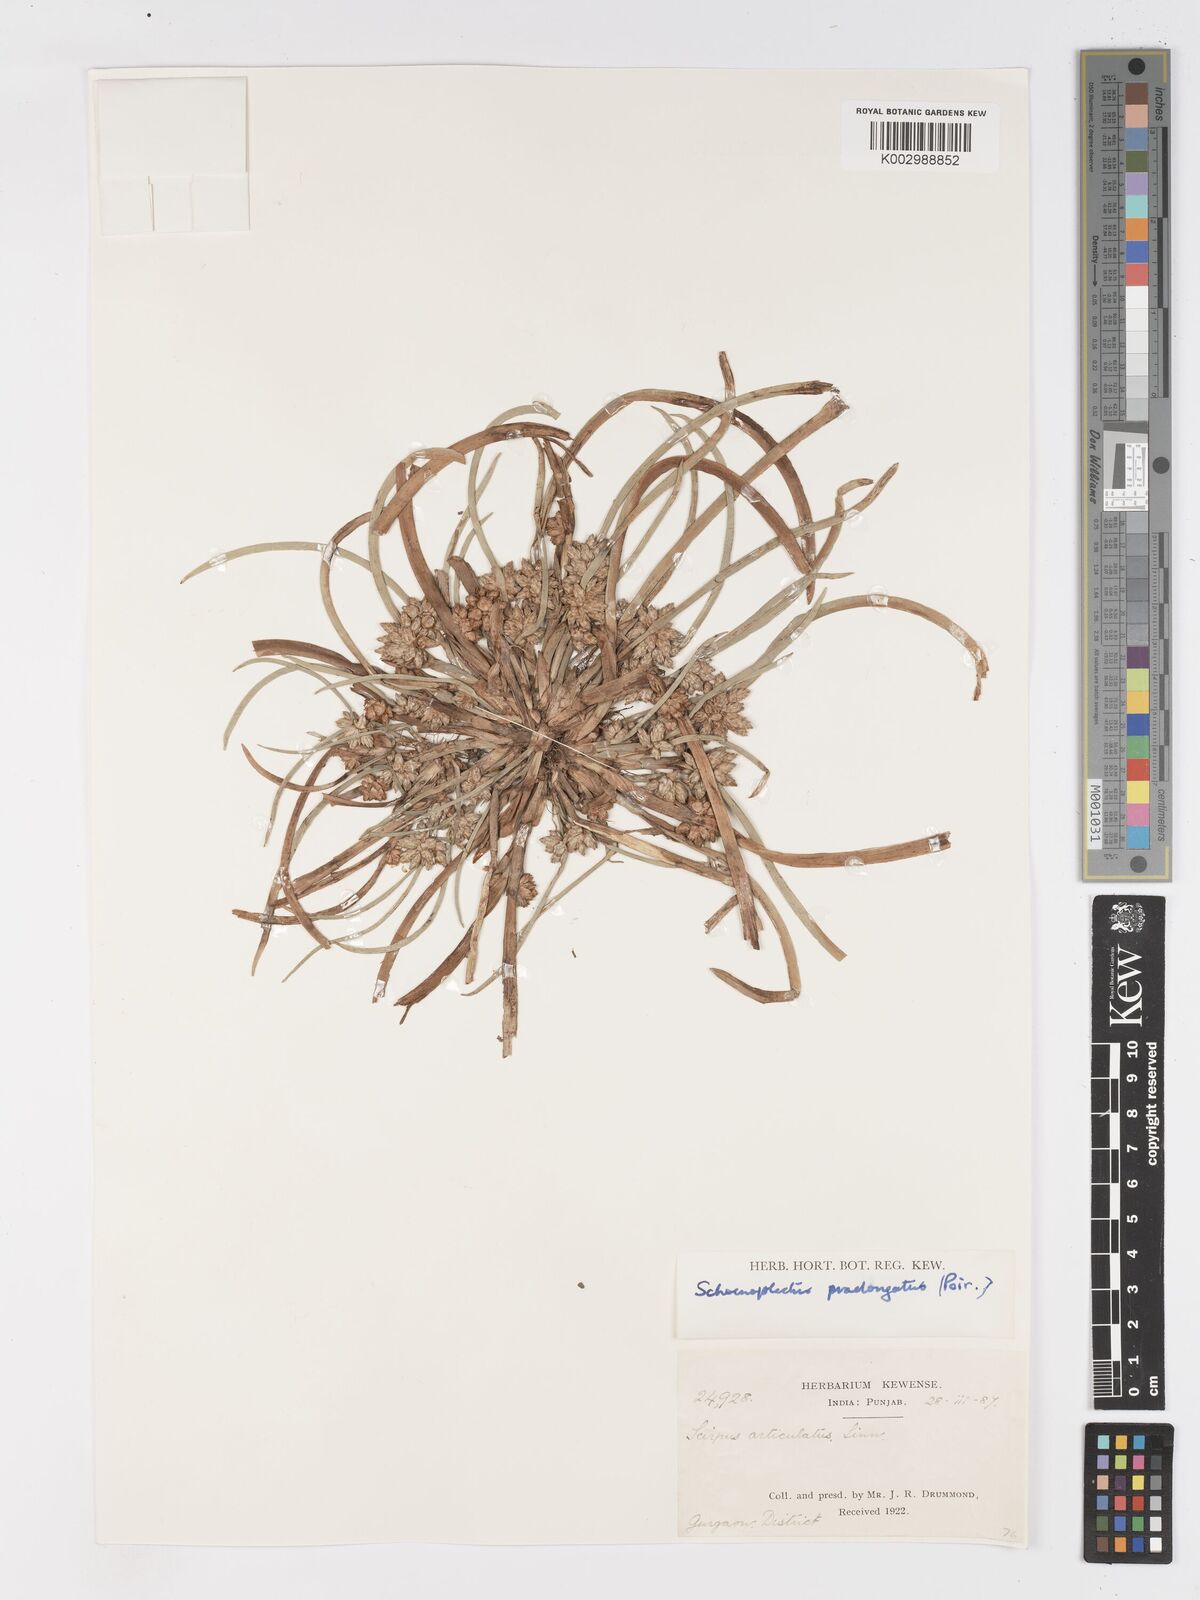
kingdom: Plantae
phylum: Tracheophyta
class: Liliopsida
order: Poales
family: Cyperaceae
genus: Schoenoplectiella
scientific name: Schoenoplectiella praelongata
